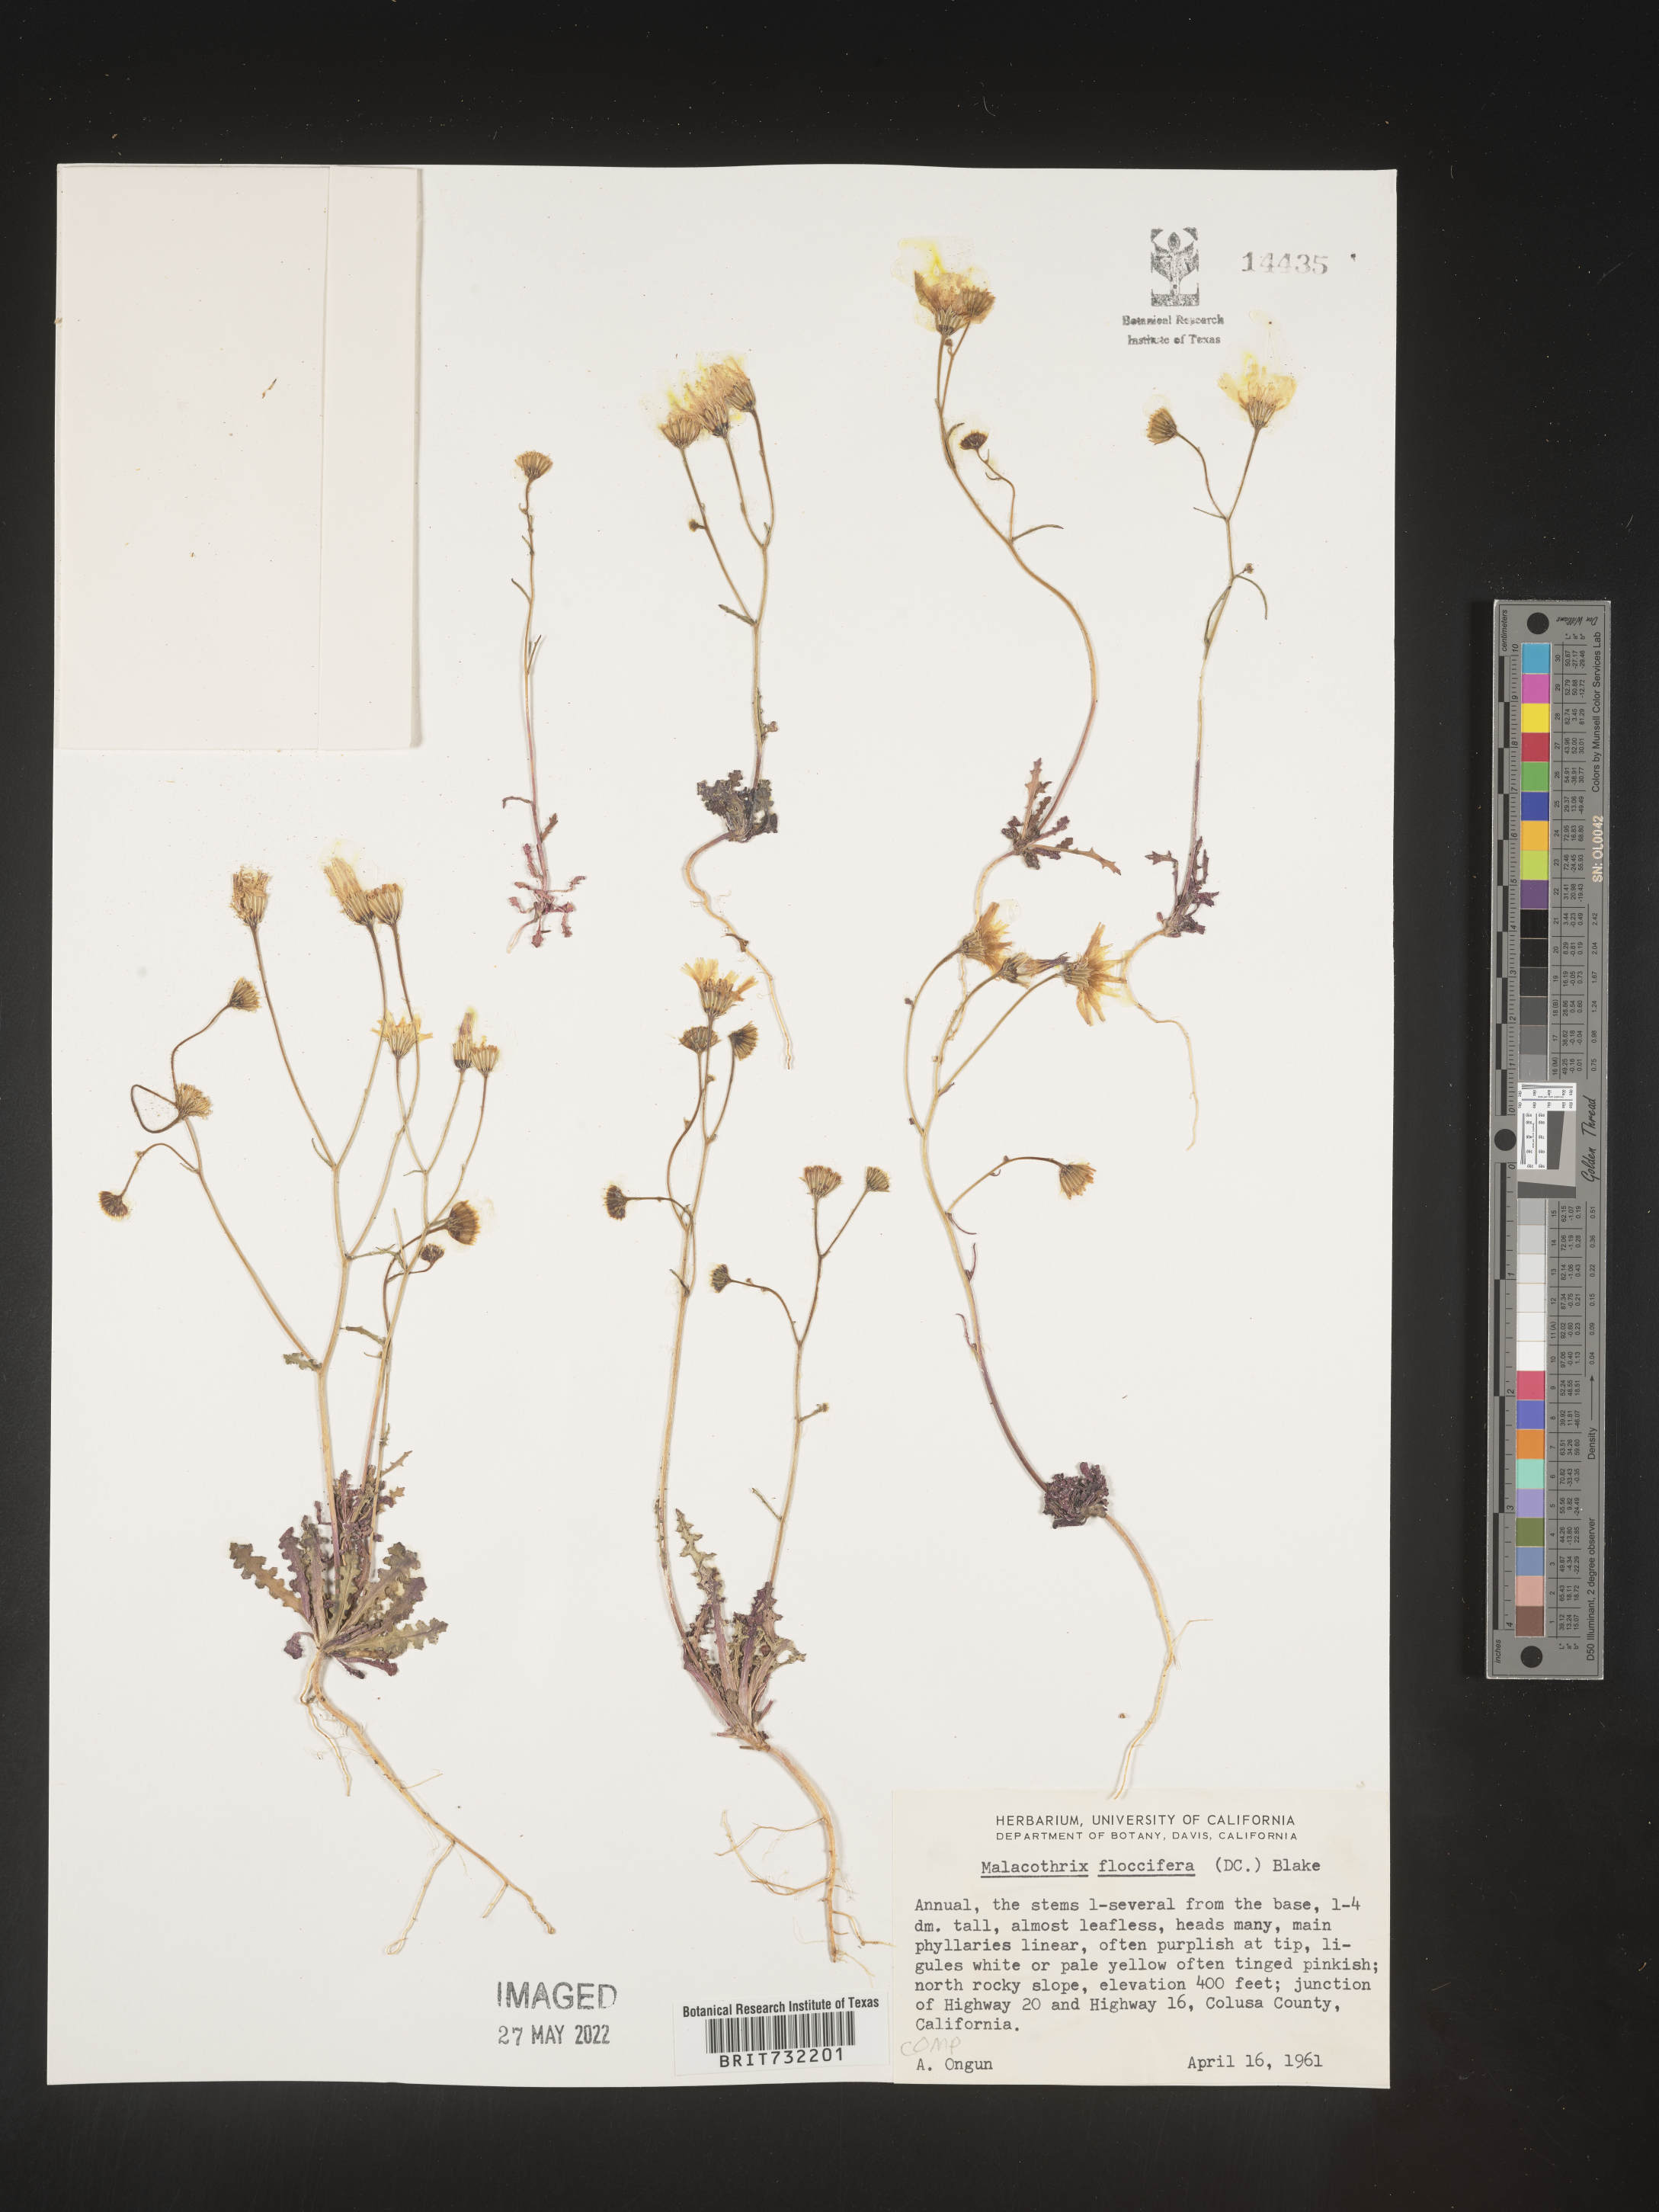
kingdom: Plantae
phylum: Tracheophyta
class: Magnoliopsida
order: Asterales
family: Asteraceae
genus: Malacothrix
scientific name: Malacothrix
